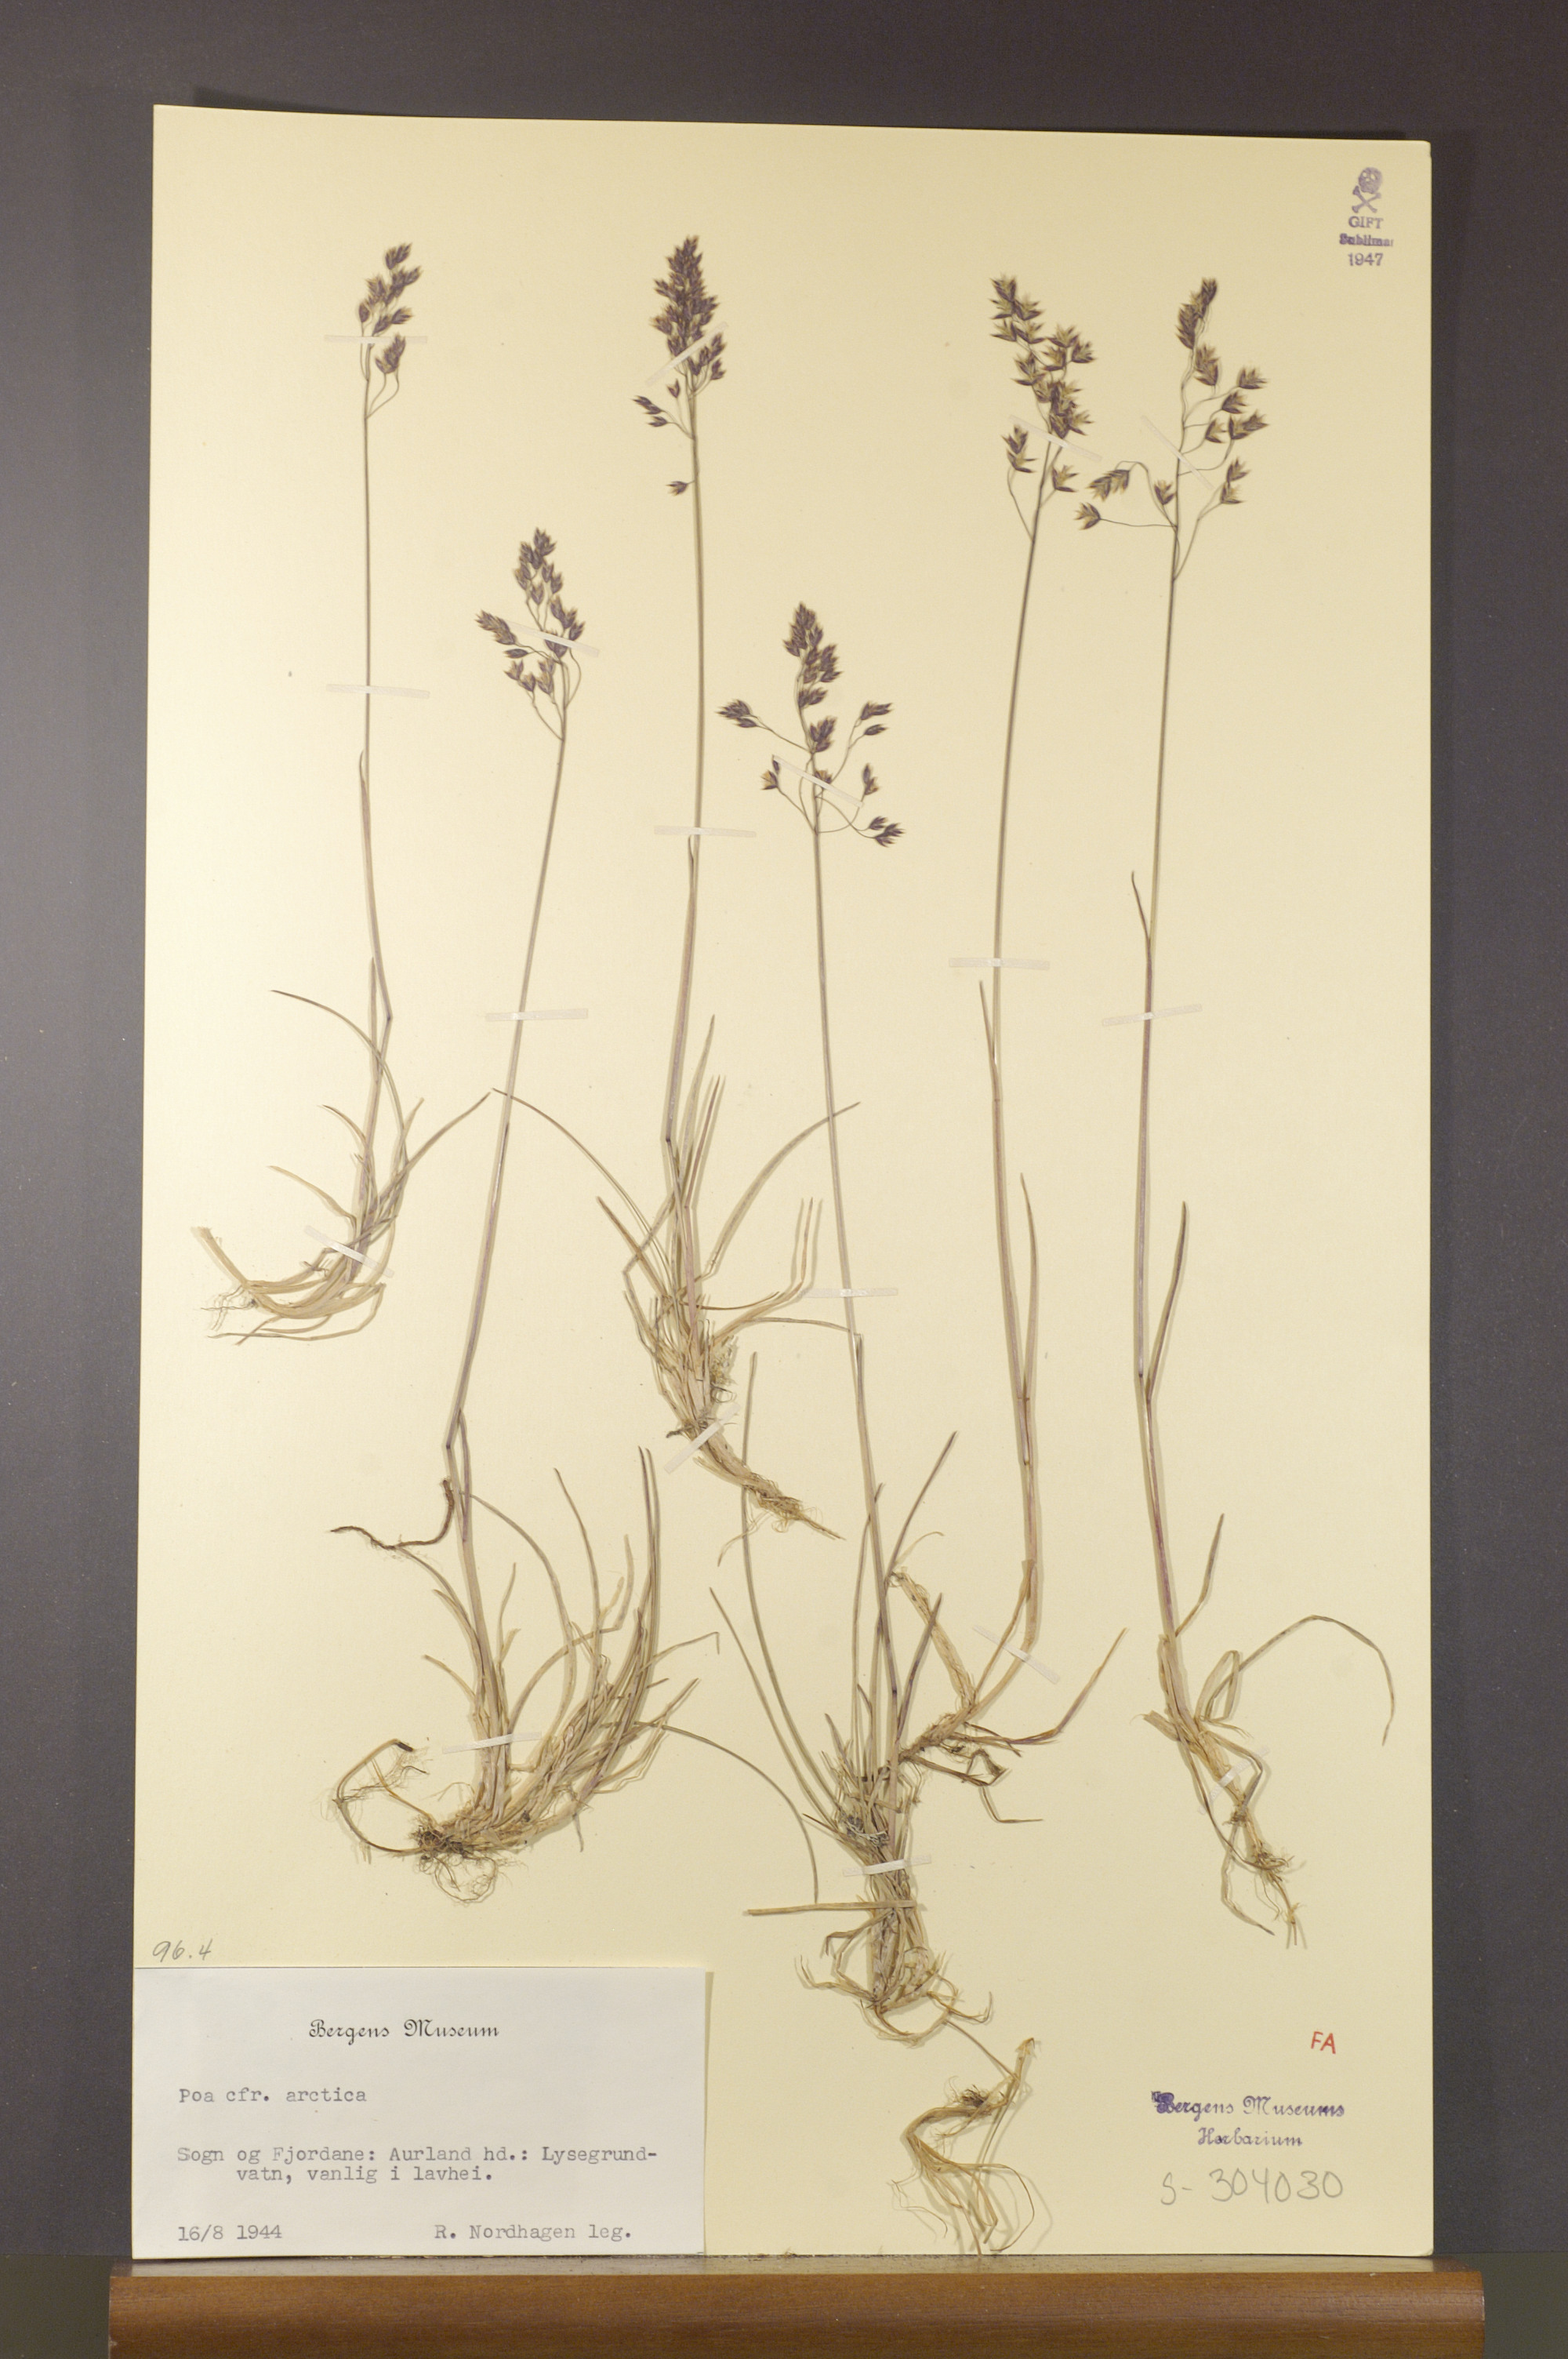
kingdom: Plantae
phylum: Tracheophyta
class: Liliopsida
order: Poales
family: Poaceae
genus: Poa
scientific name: Poa arctica
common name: Arctic bluegrass
